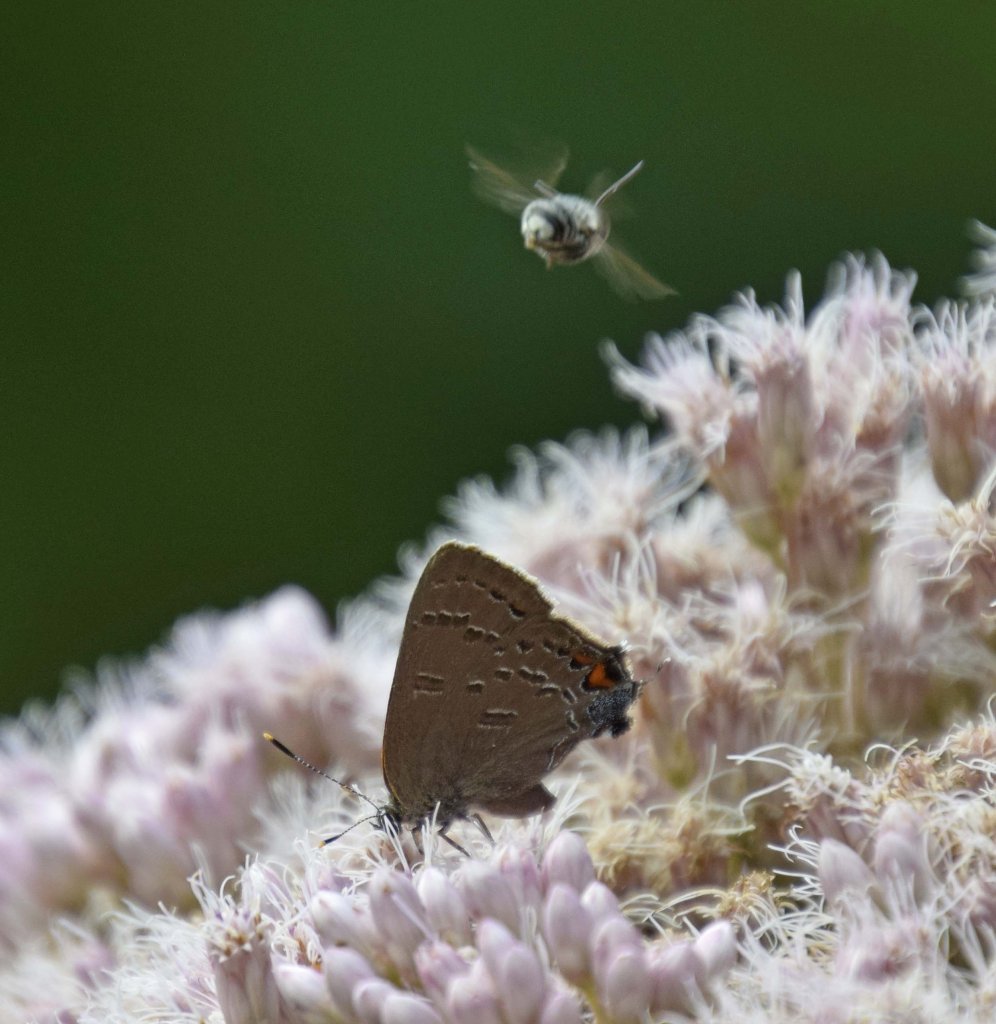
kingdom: Animalia
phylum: Arthropoda
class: Insecta
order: Lepidoptera
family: Lycaenidae
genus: Satyrium
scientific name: Satyrium calanus
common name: Banded Hairstreak
